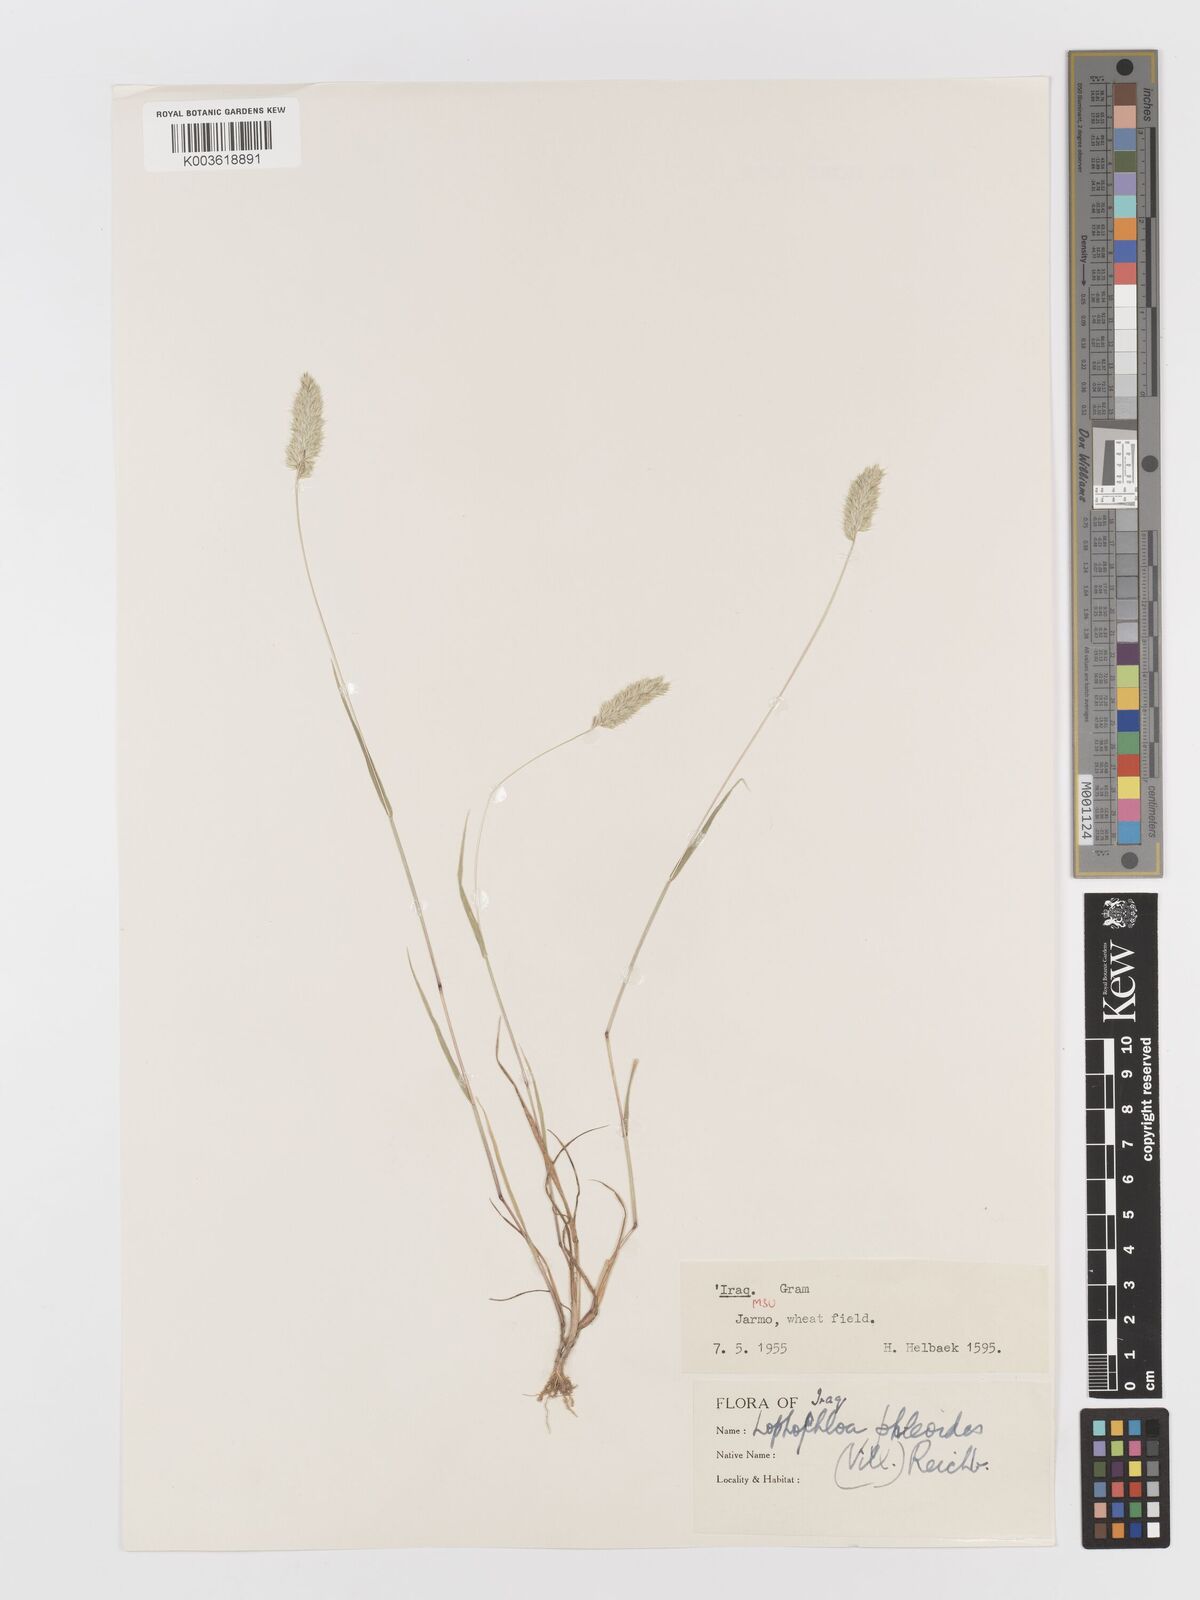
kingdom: Plantae
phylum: Tracheophyta
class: Liliopsida
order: Poales
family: Poaceae
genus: Rostraria
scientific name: Rostraria cristata
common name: Mediterranean hair-grass
